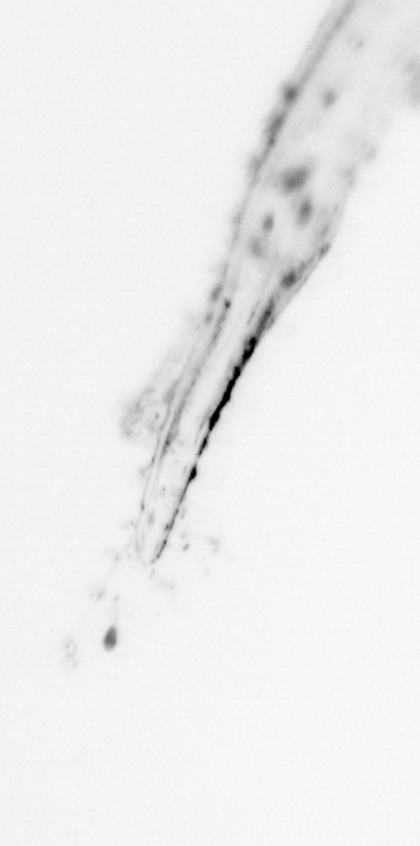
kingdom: Animalia
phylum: Chaetognatha
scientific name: Chaetognatha
